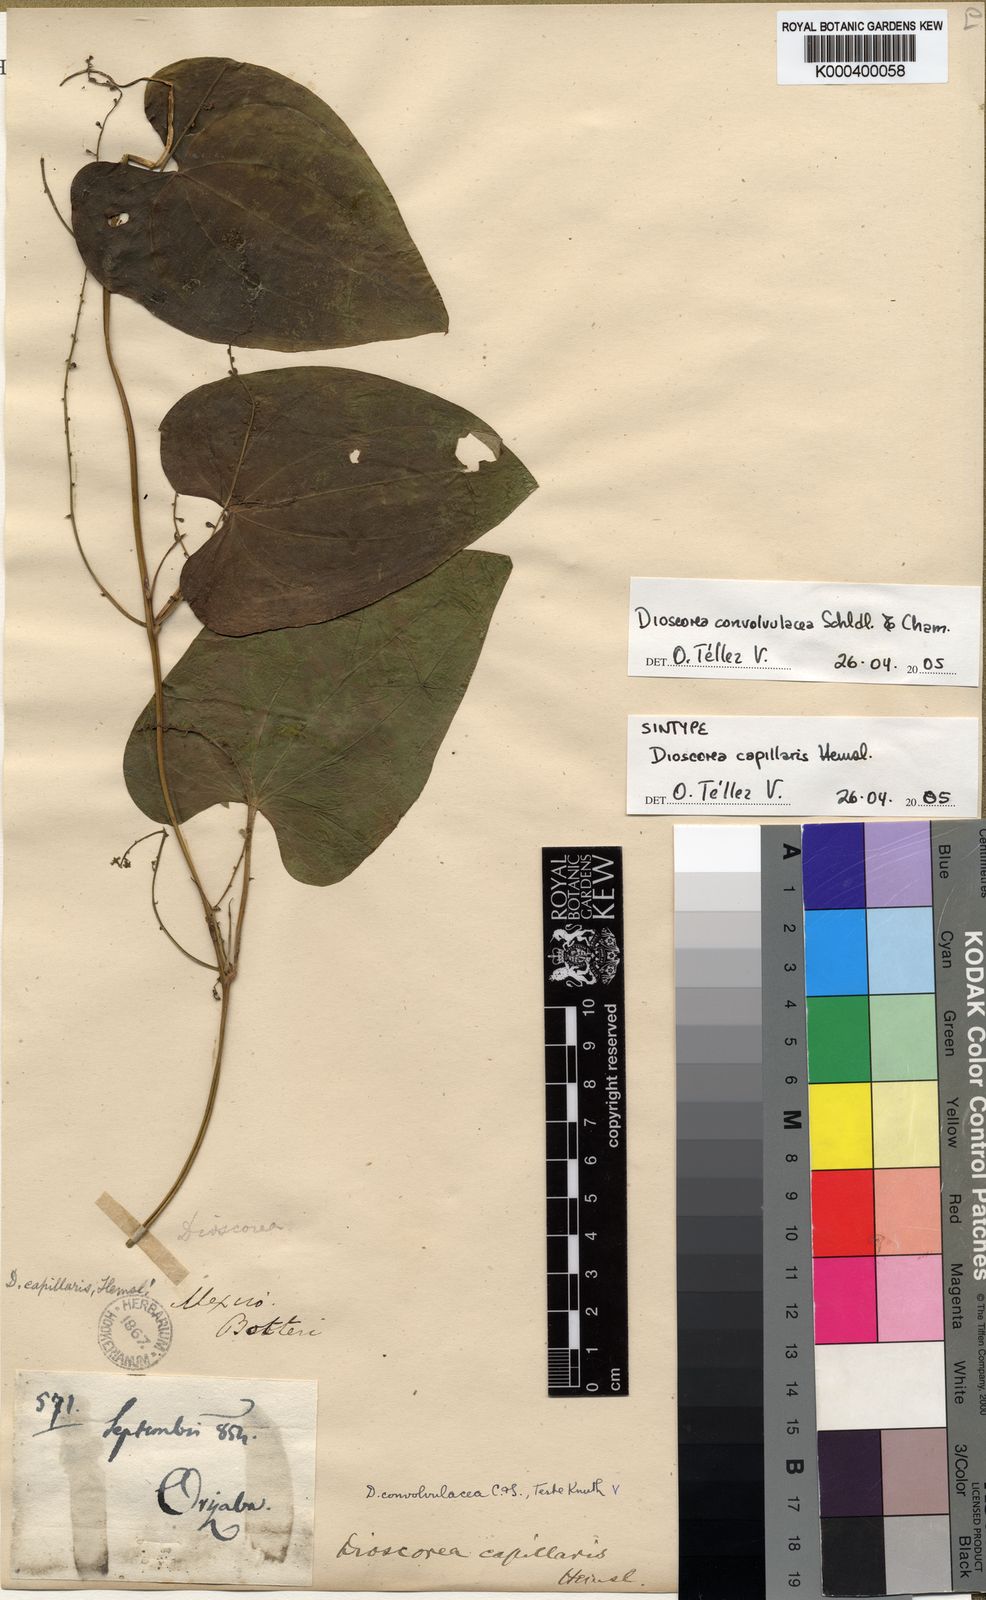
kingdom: Plantae
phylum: Tracheophyta
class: Liliopsida
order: Dioscoreales
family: Dioscoreaceae
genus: Dioscorea
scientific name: Dioscorea convolvulacea
